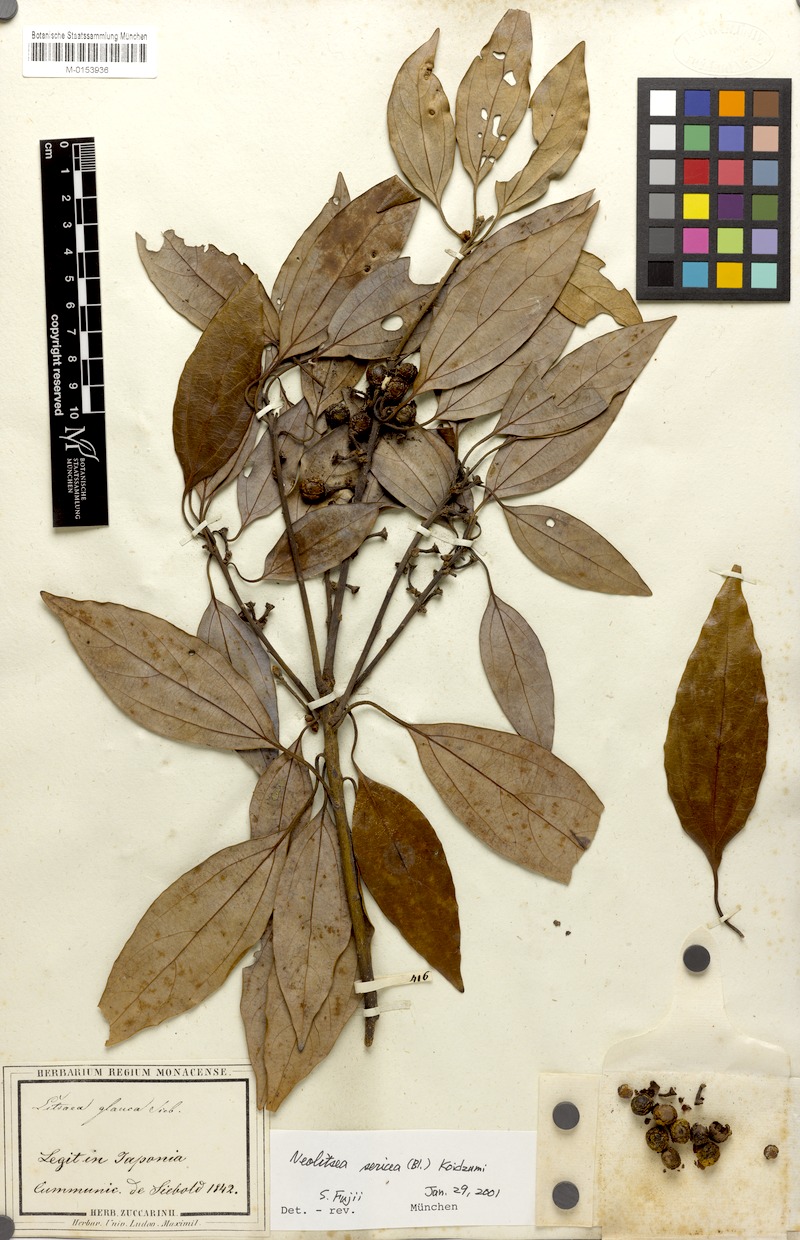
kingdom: Plantae
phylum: Tracheophyta
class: Magnoliopsida
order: Laurales
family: Lauraceae
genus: Neolitsea
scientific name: Neolitsea sericea
